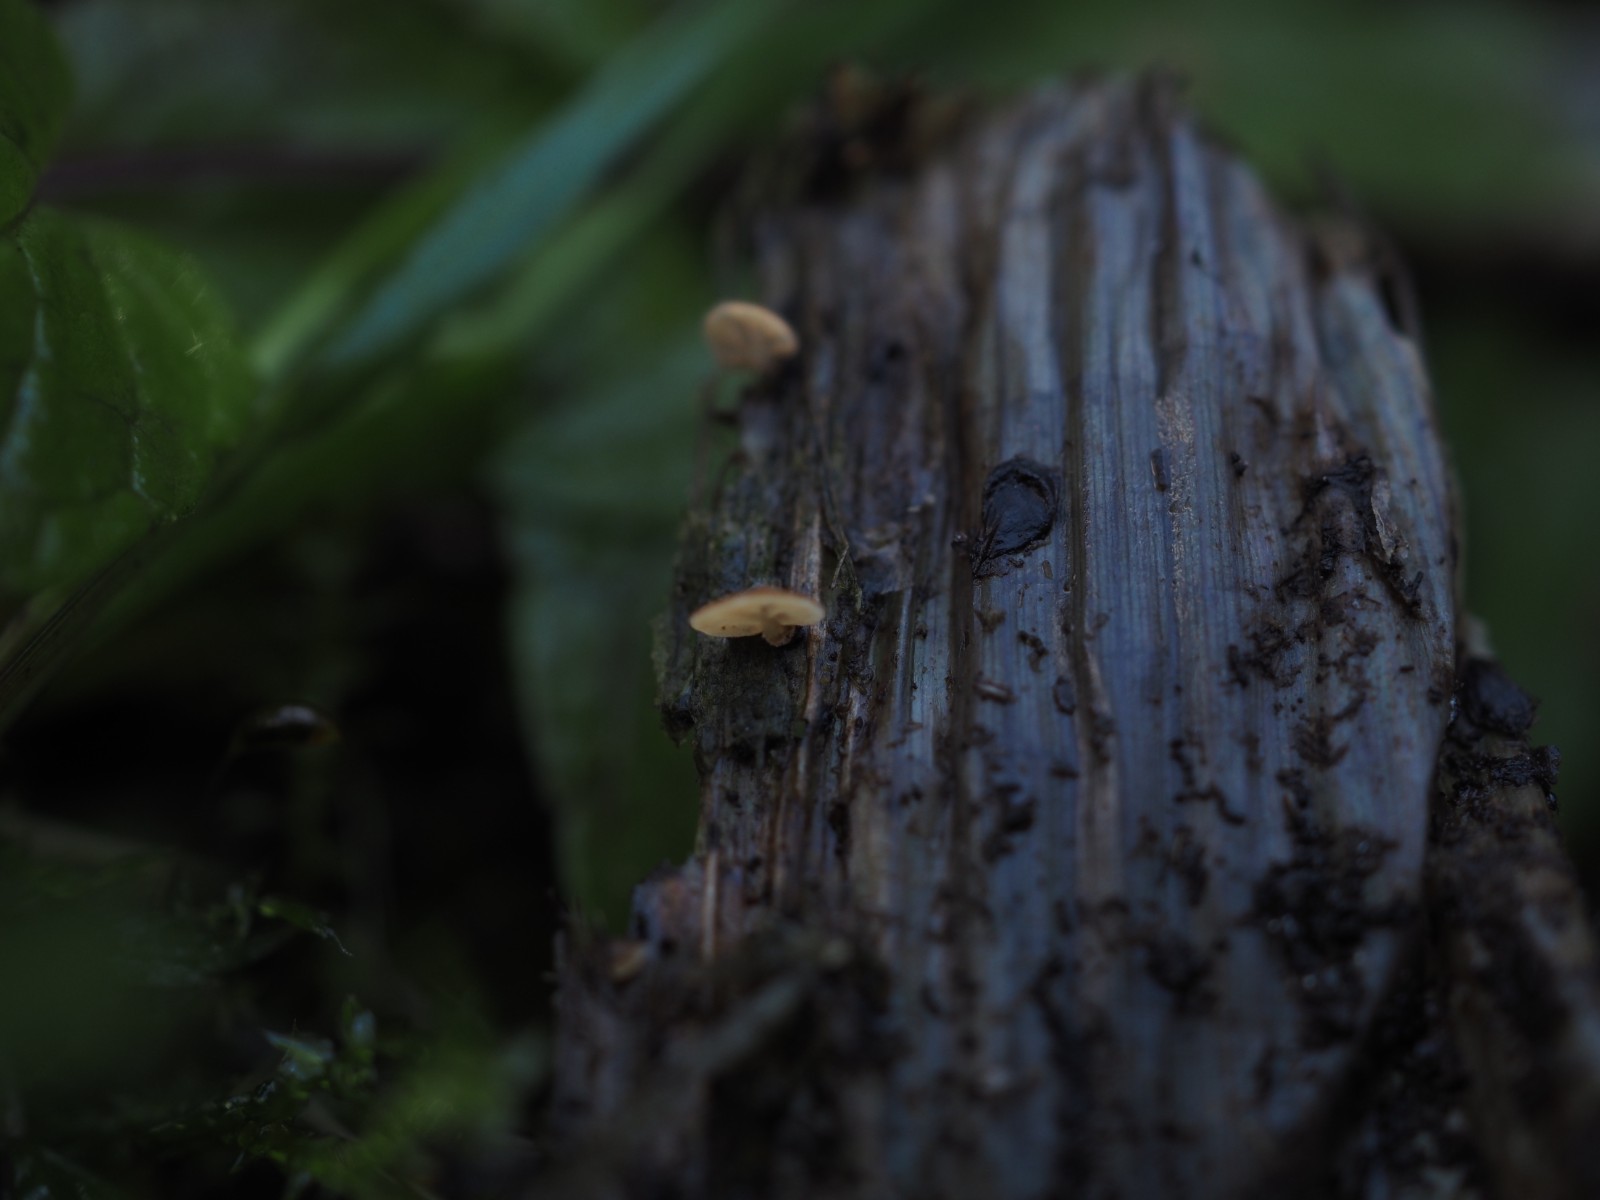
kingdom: Fungi
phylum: Basidiomycota
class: Agaricomycetes
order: Agaricales
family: Physalacriaceae
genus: Gloiocephala
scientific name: Gloiocephala menieri
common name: dunhammer-spatelhat
